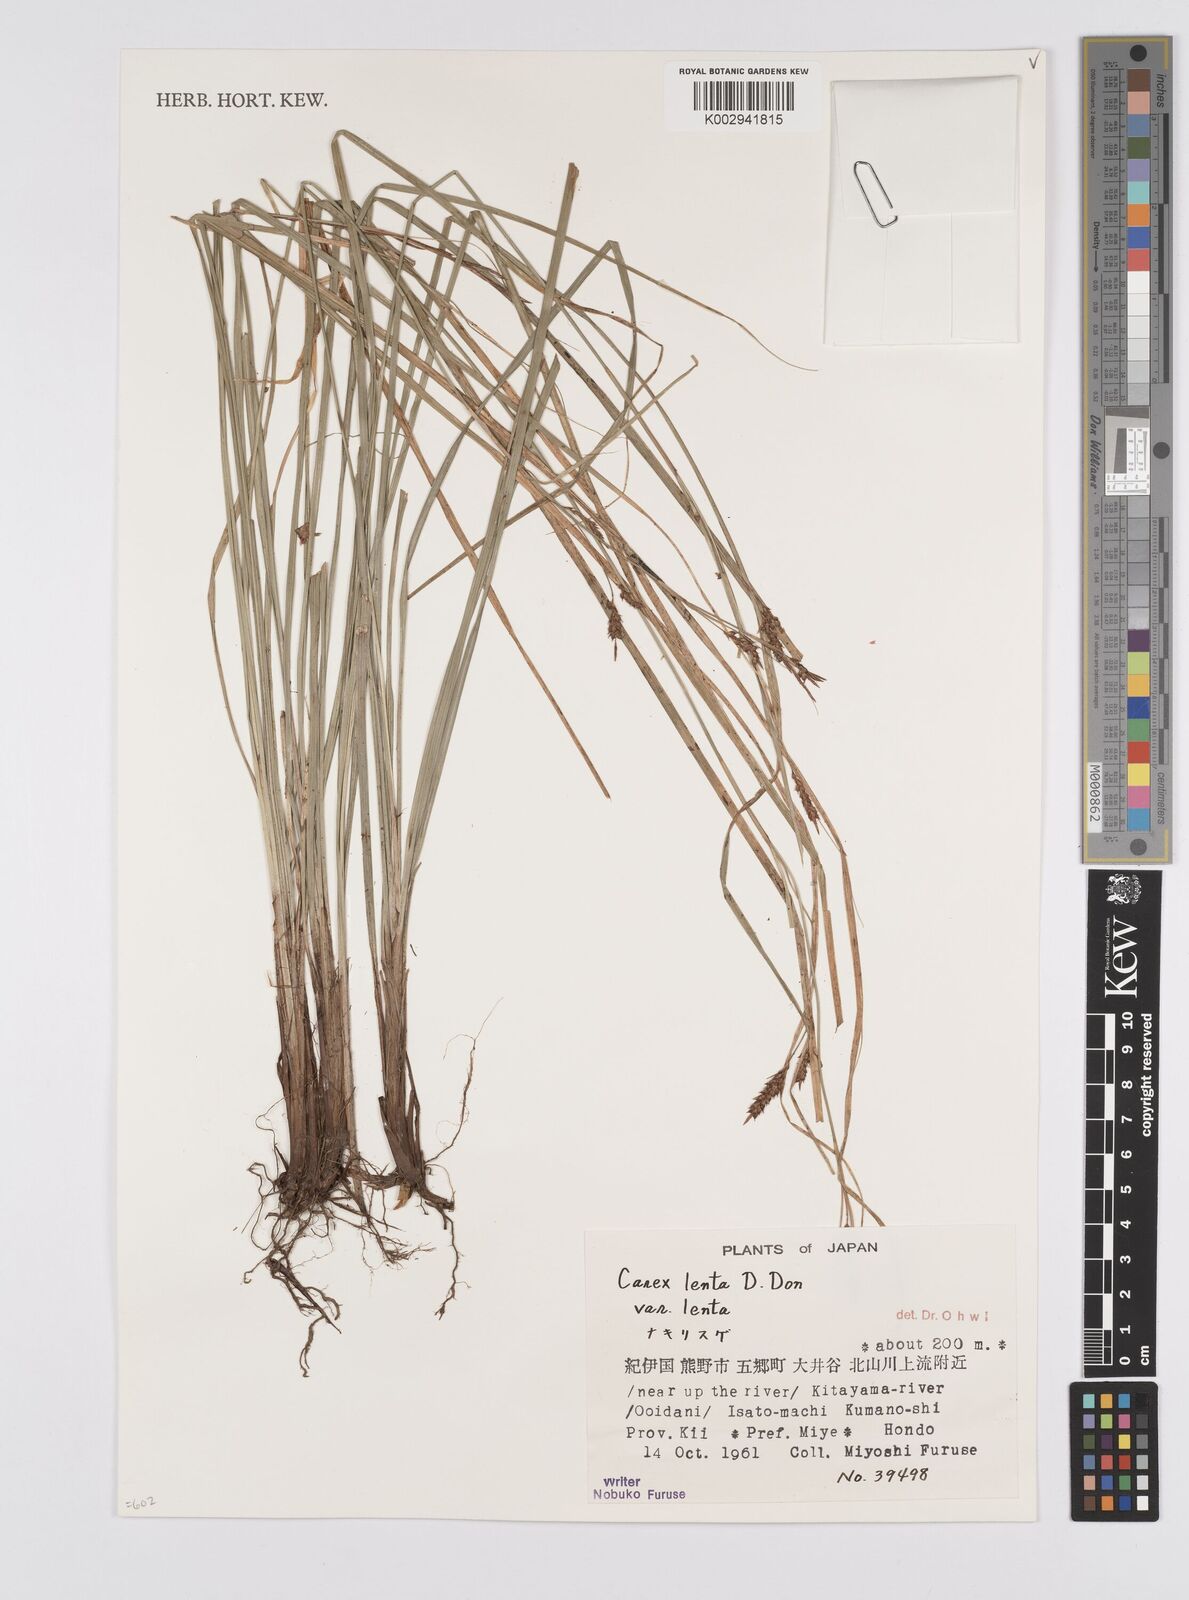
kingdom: Plantae
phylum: Tracheophyta
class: Liliopsida
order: Poales
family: Cyperaceae
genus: Carex
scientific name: Carex brunnea
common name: Greater brown sedge
